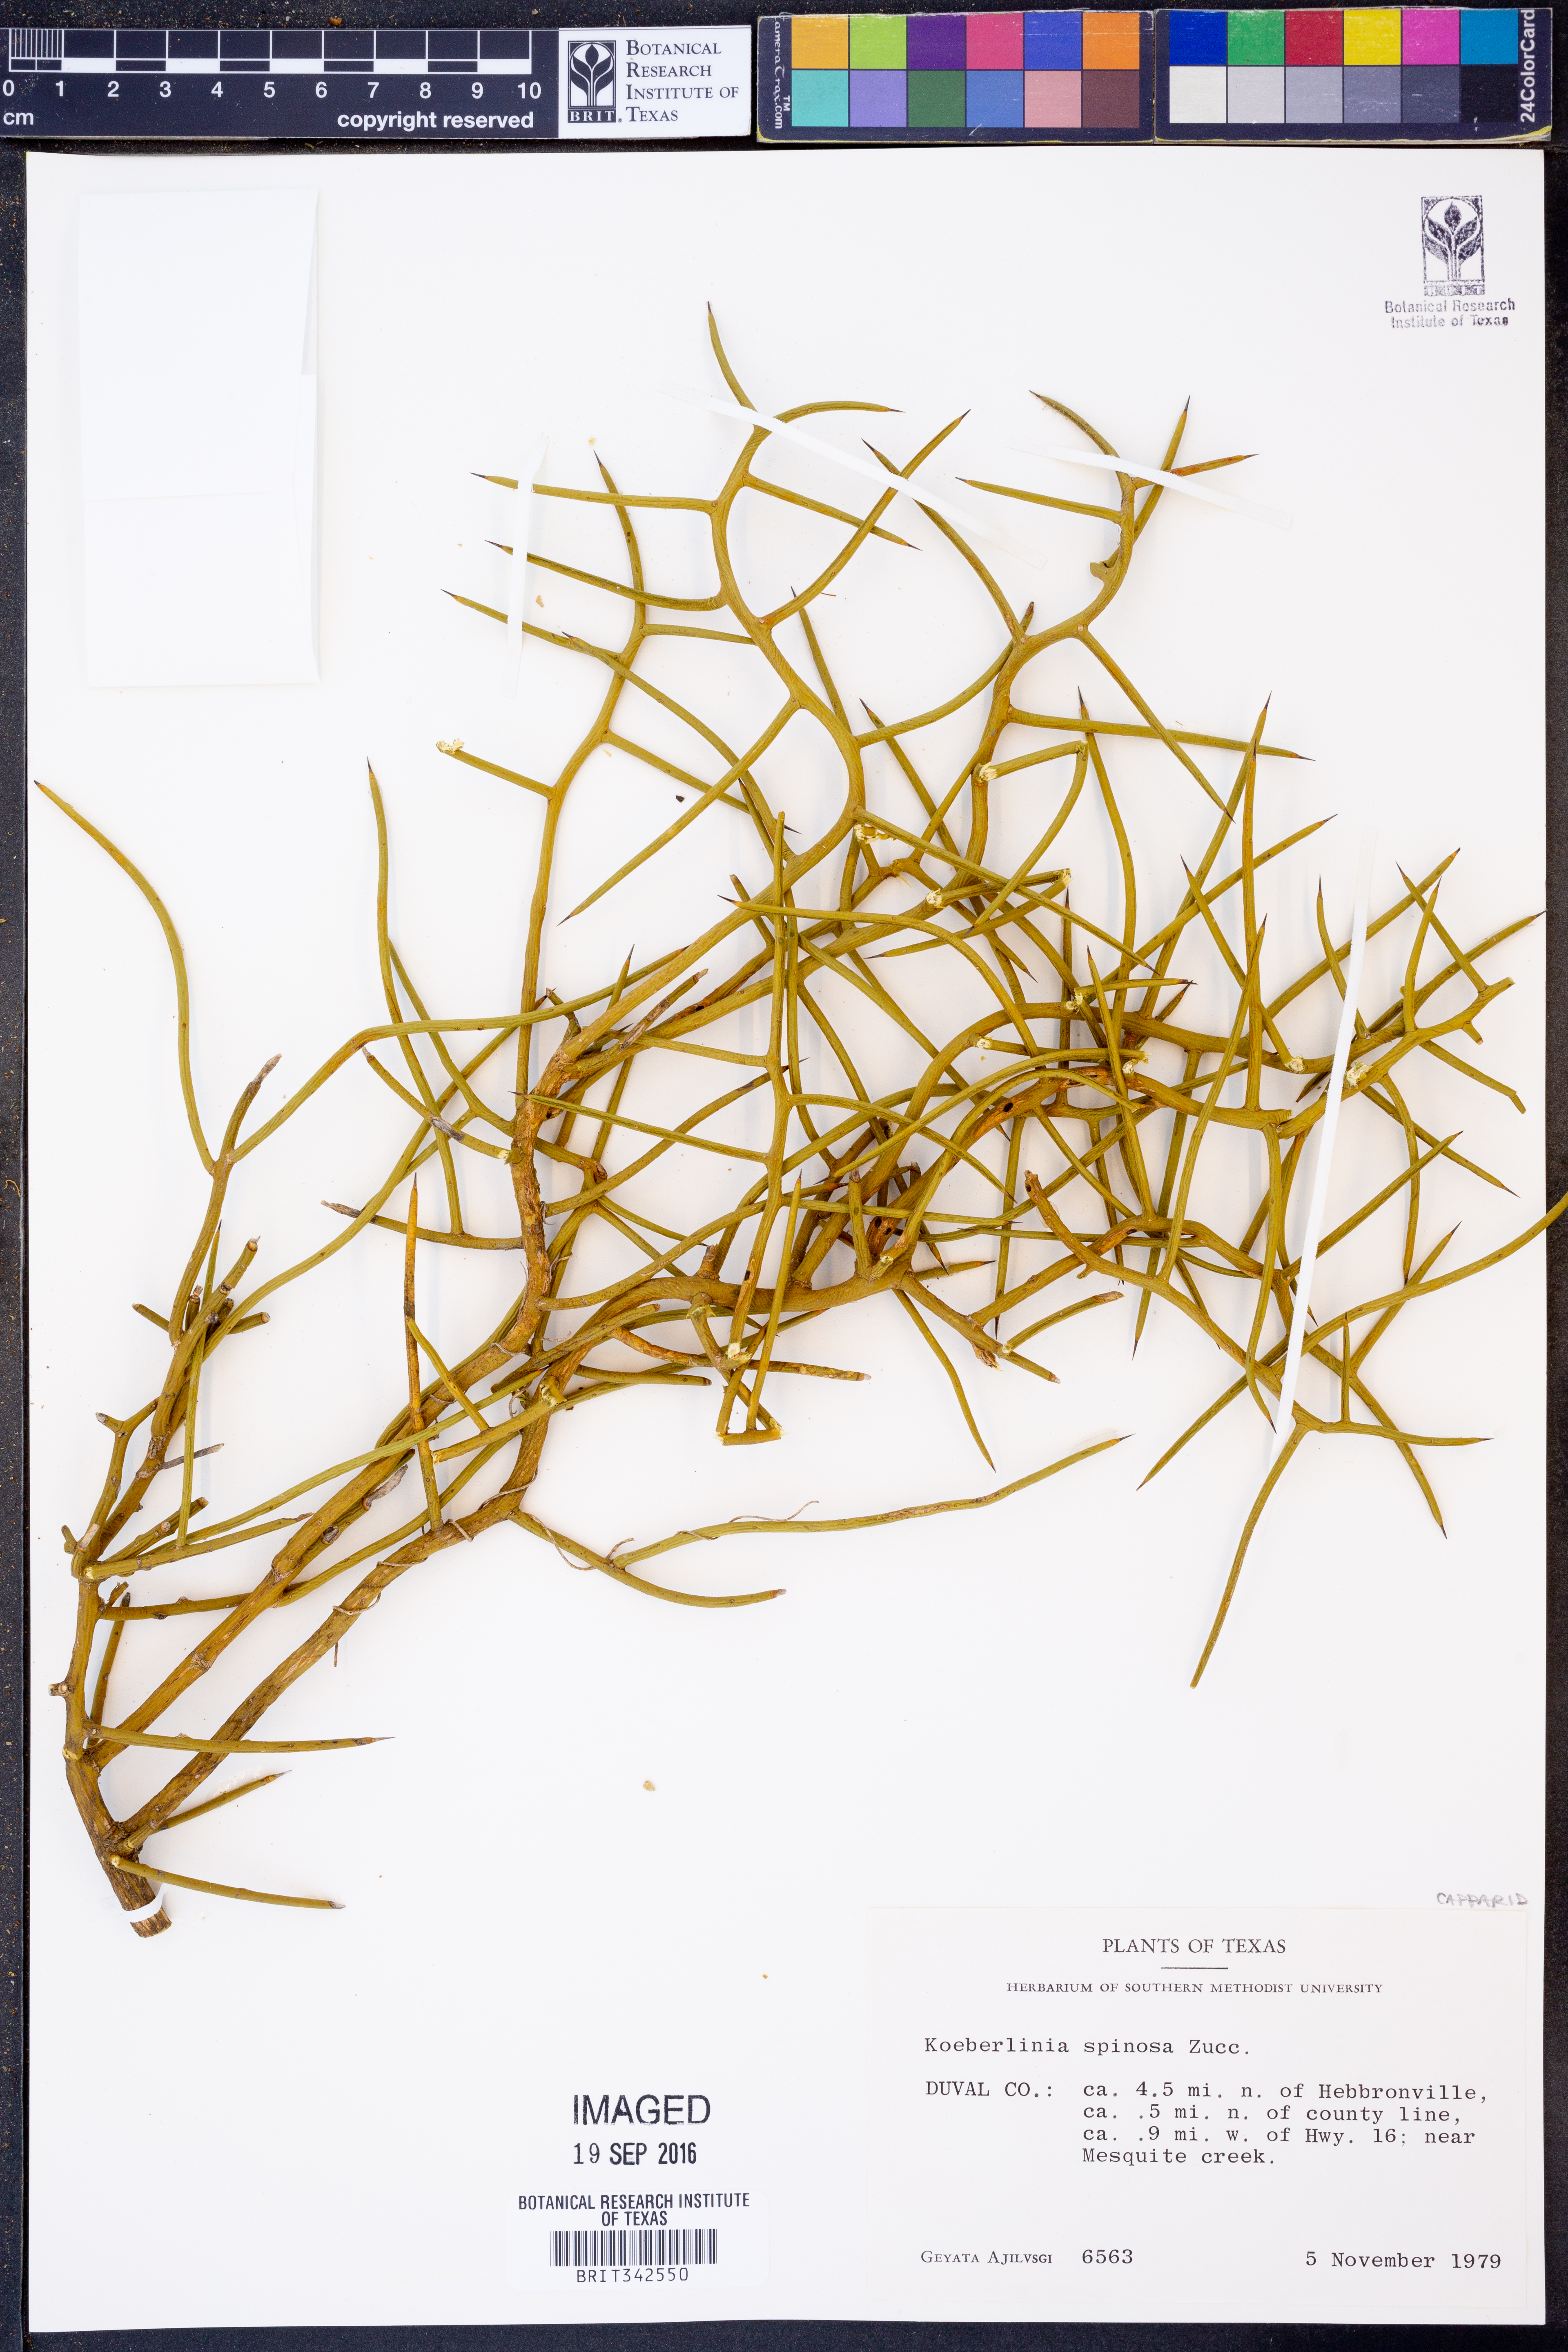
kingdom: Plantae
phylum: Tracheophyta
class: Magnoliopsida
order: Brassicales
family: Koeberliniaceae
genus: Koeberlinia
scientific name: Koeberlinia spinosa
